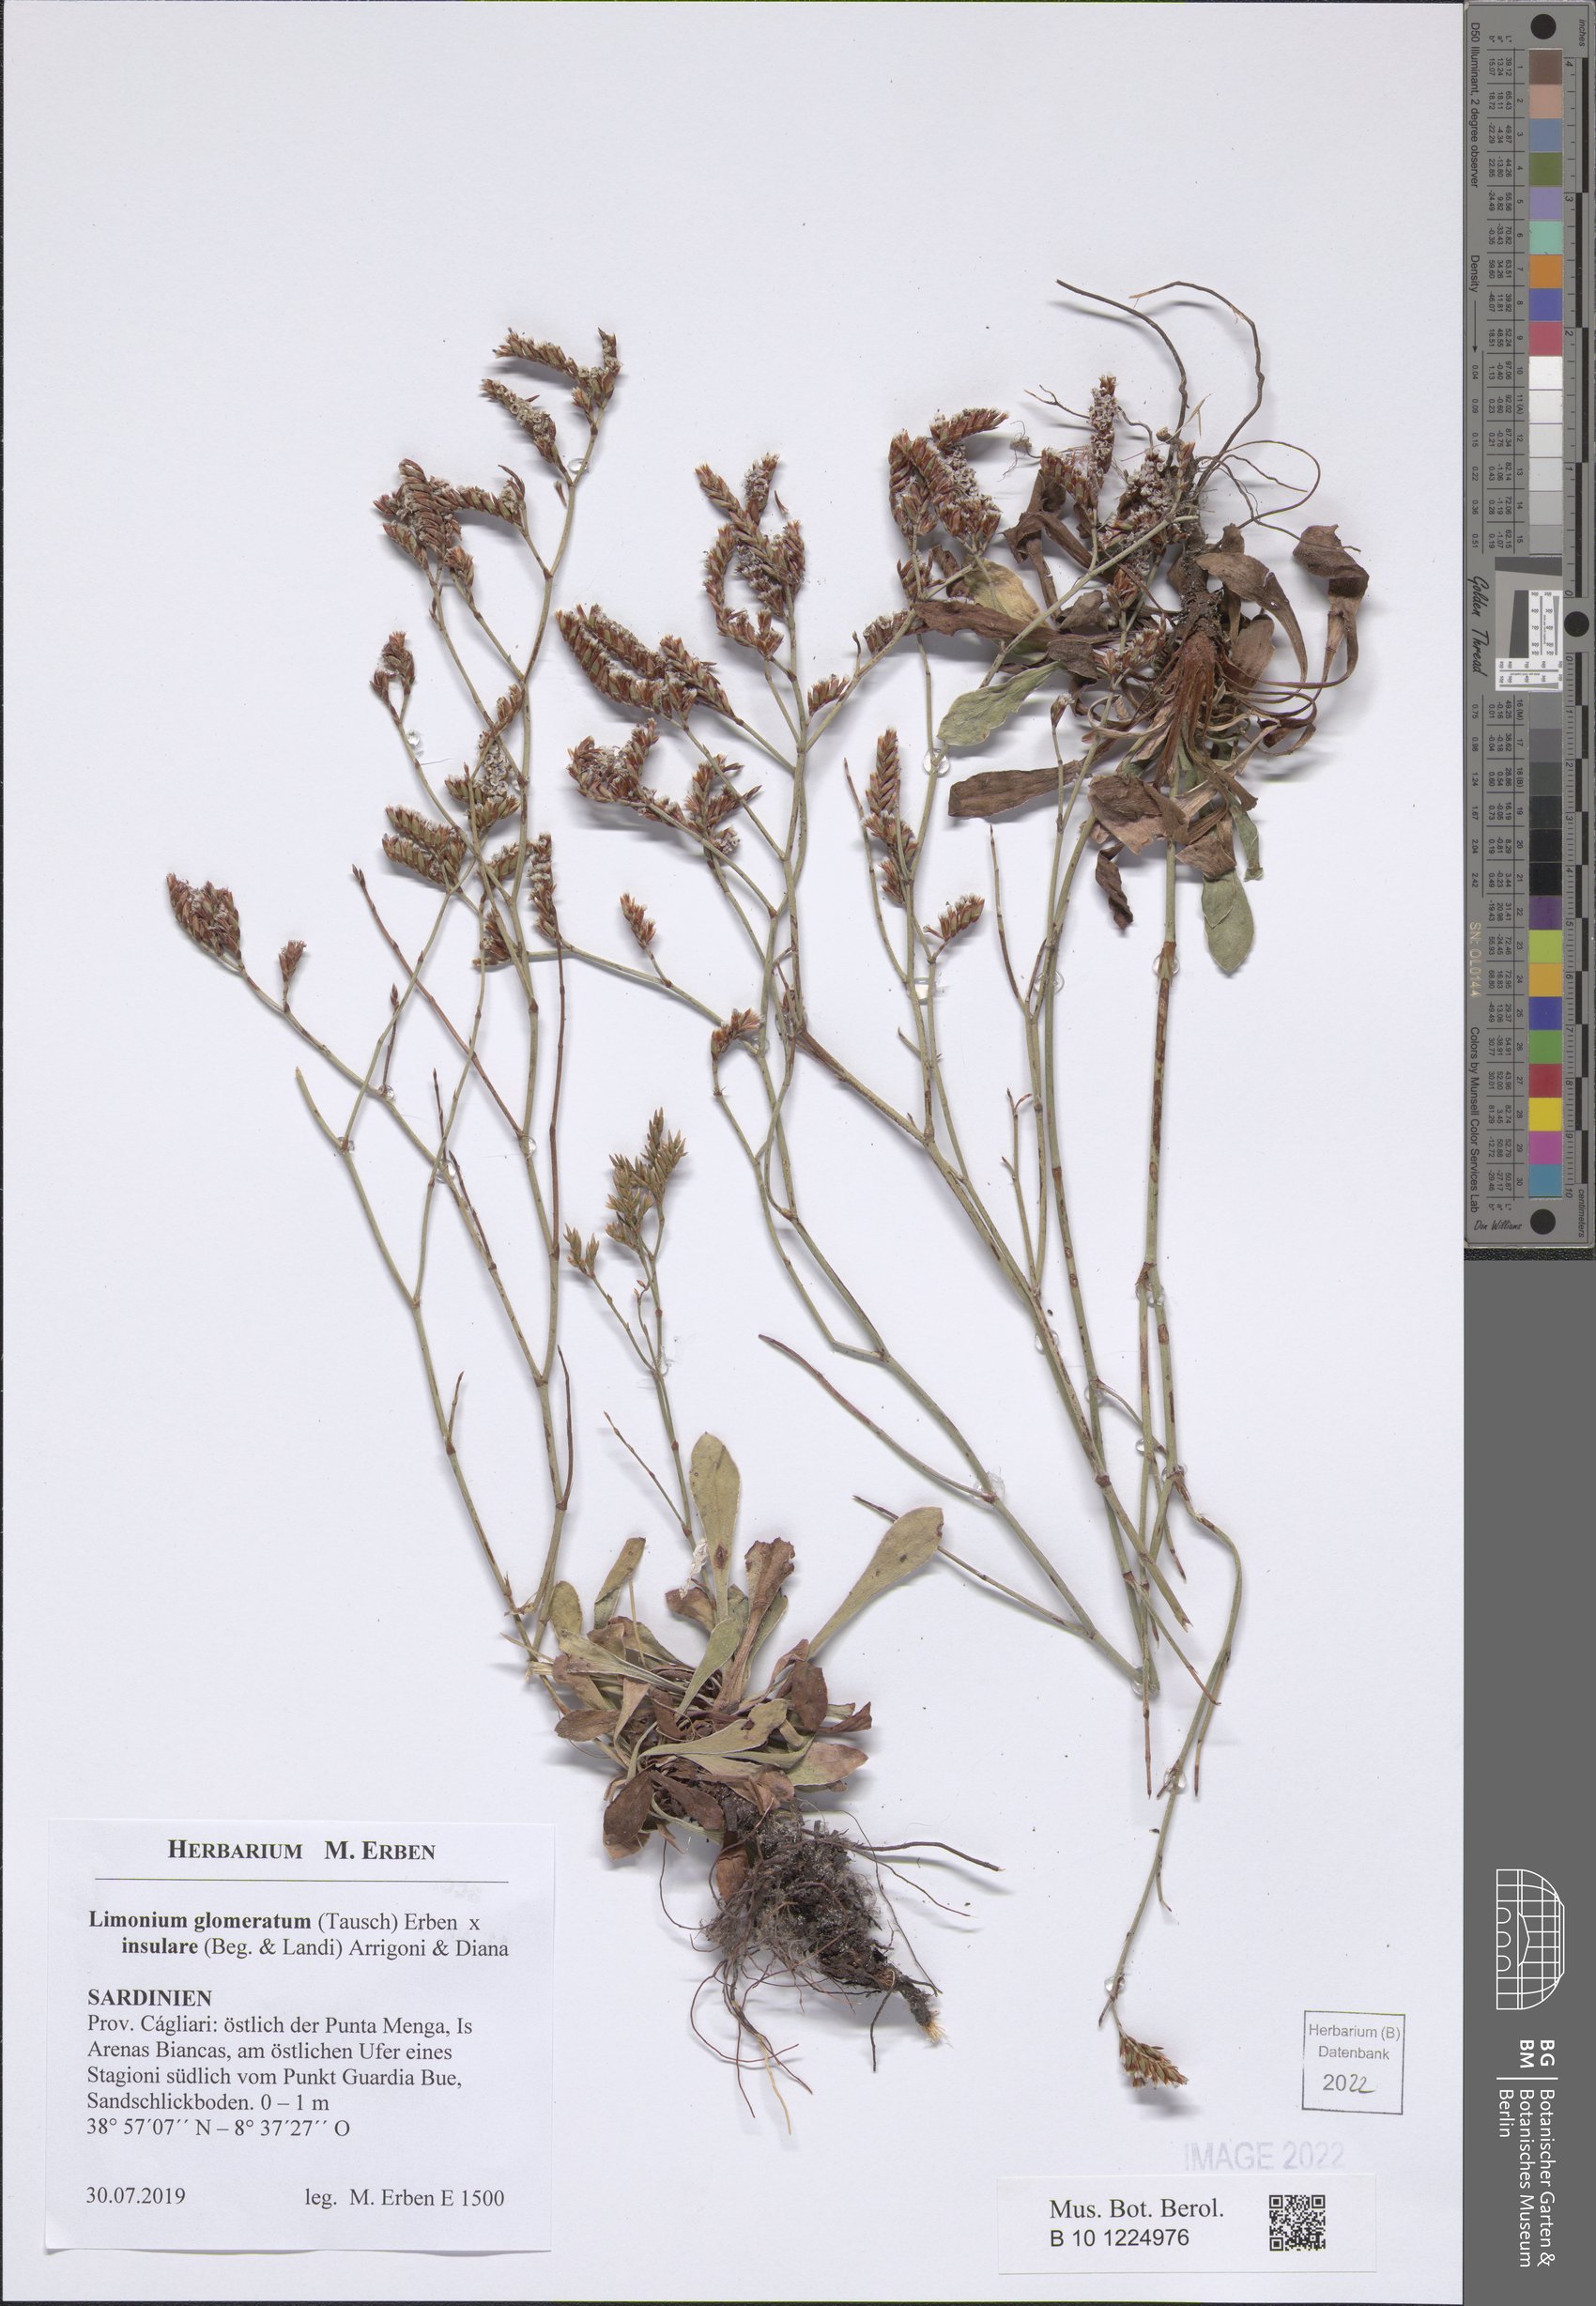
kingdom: Plantae
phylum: Tracheophyta
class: Magnoliopsida
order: Caryophyllales
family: Plumbaginaceae
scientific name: Plumbaginaceae
